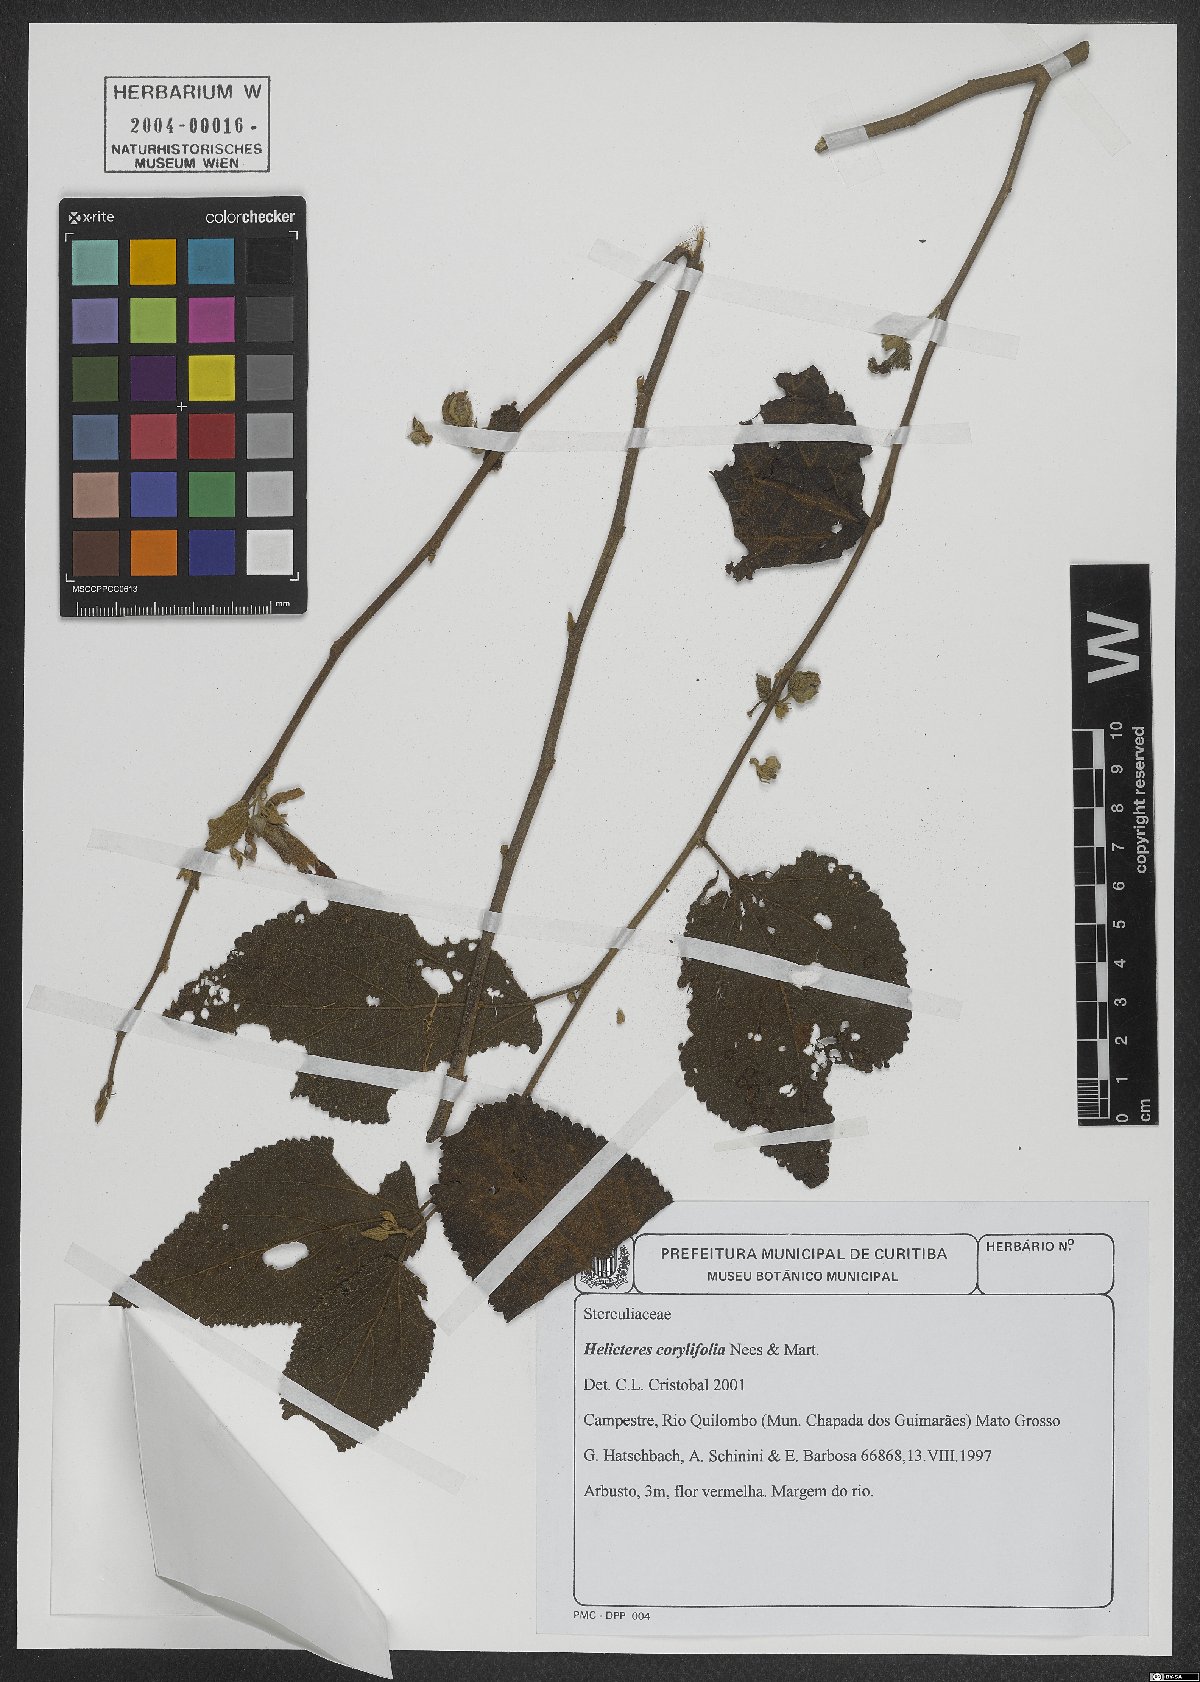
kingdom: Plantae
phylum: Tracheophyta
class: Magnoliopsida
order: Malvales
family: Malvaceae
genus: Helicteres
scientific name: Helicteres corylifolia
